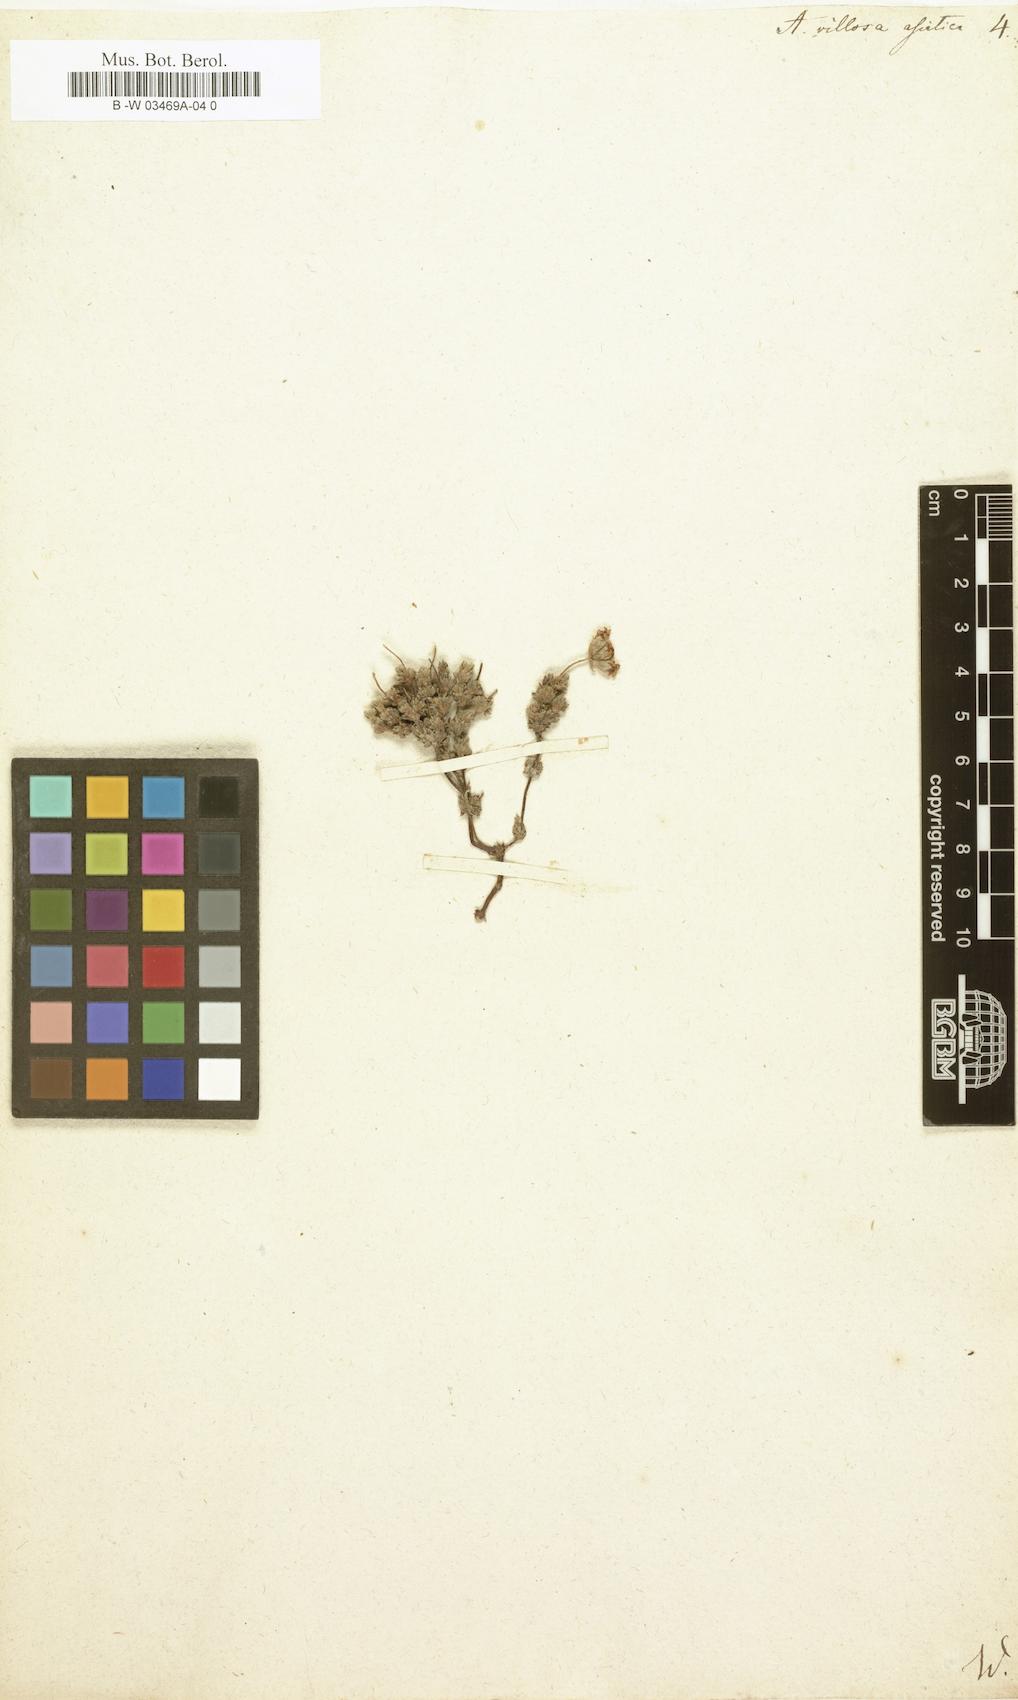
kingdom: Plantae
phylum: Tracheophyta
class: Magnoliopsida
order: Ericales
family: Primulaceae
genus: Androsace
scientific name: Androsace villosa
